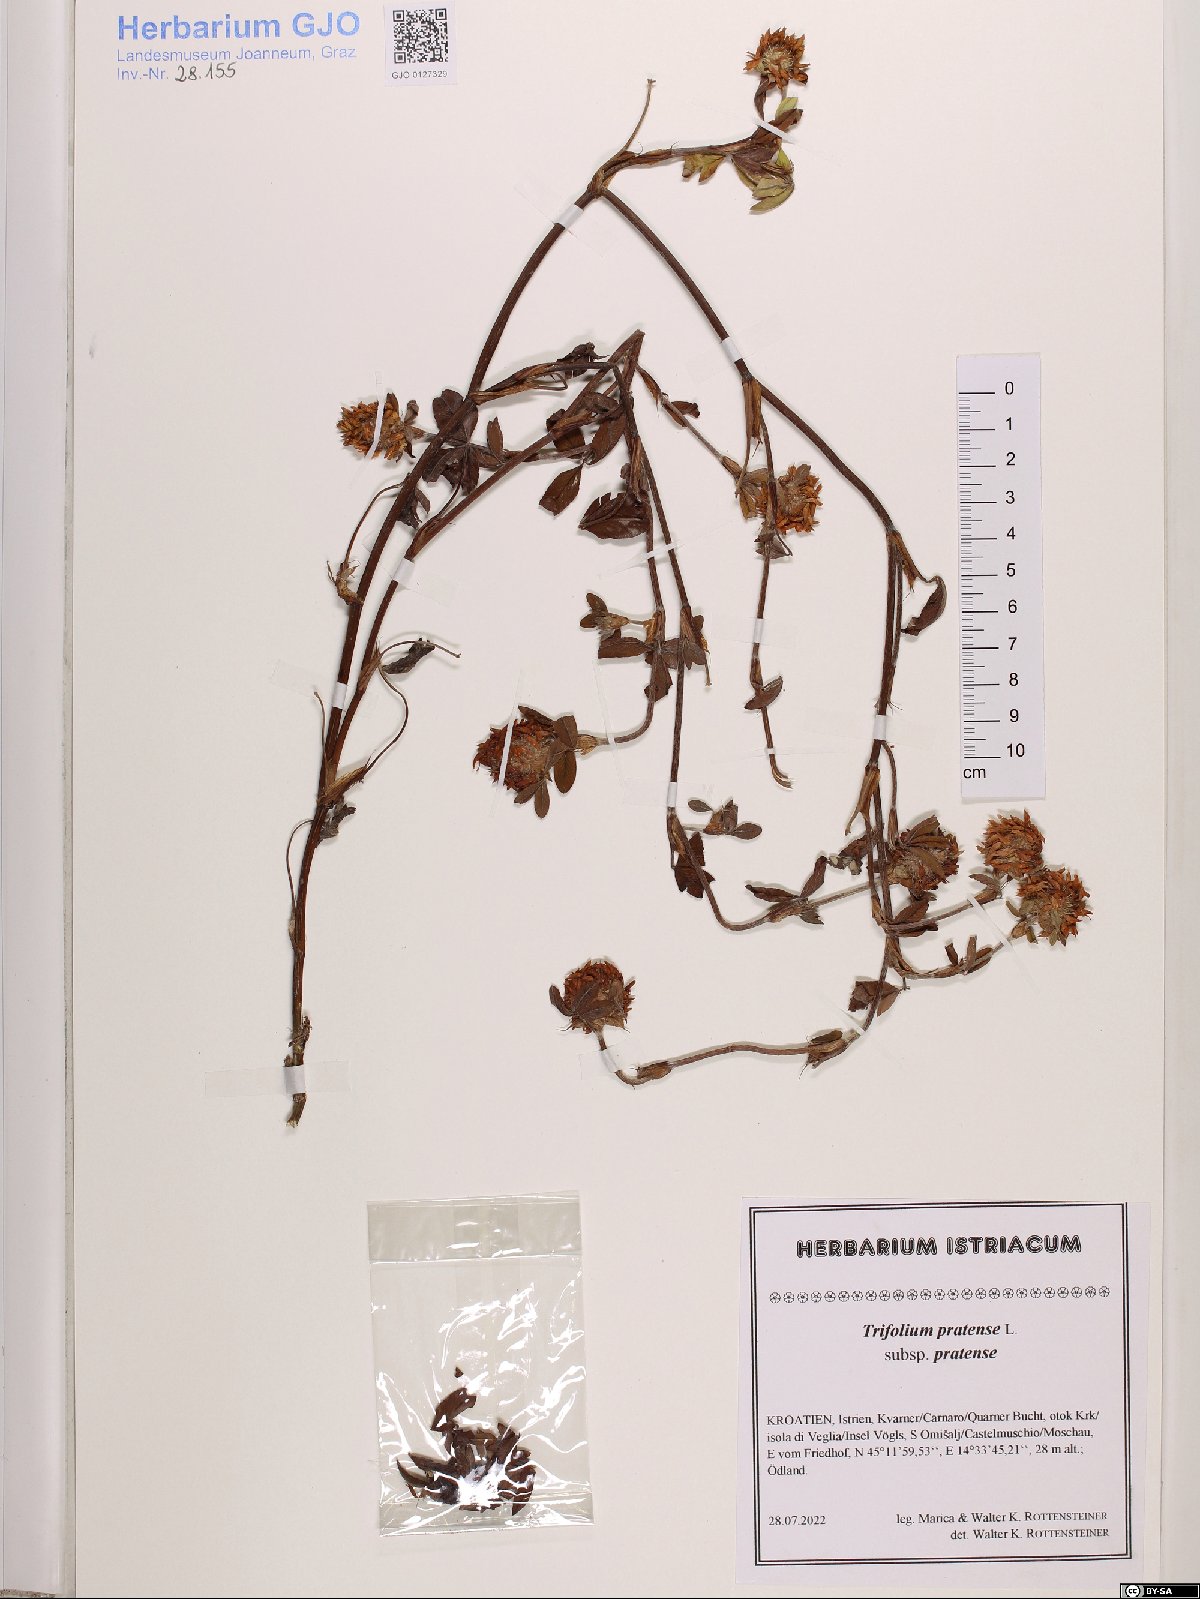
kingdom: Plantae
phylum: Tracheophyta
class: Magnoliopsida
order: Fabales
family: Fabaceae
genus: Trifolium
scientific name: Trifolium pratense
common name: Red clover
